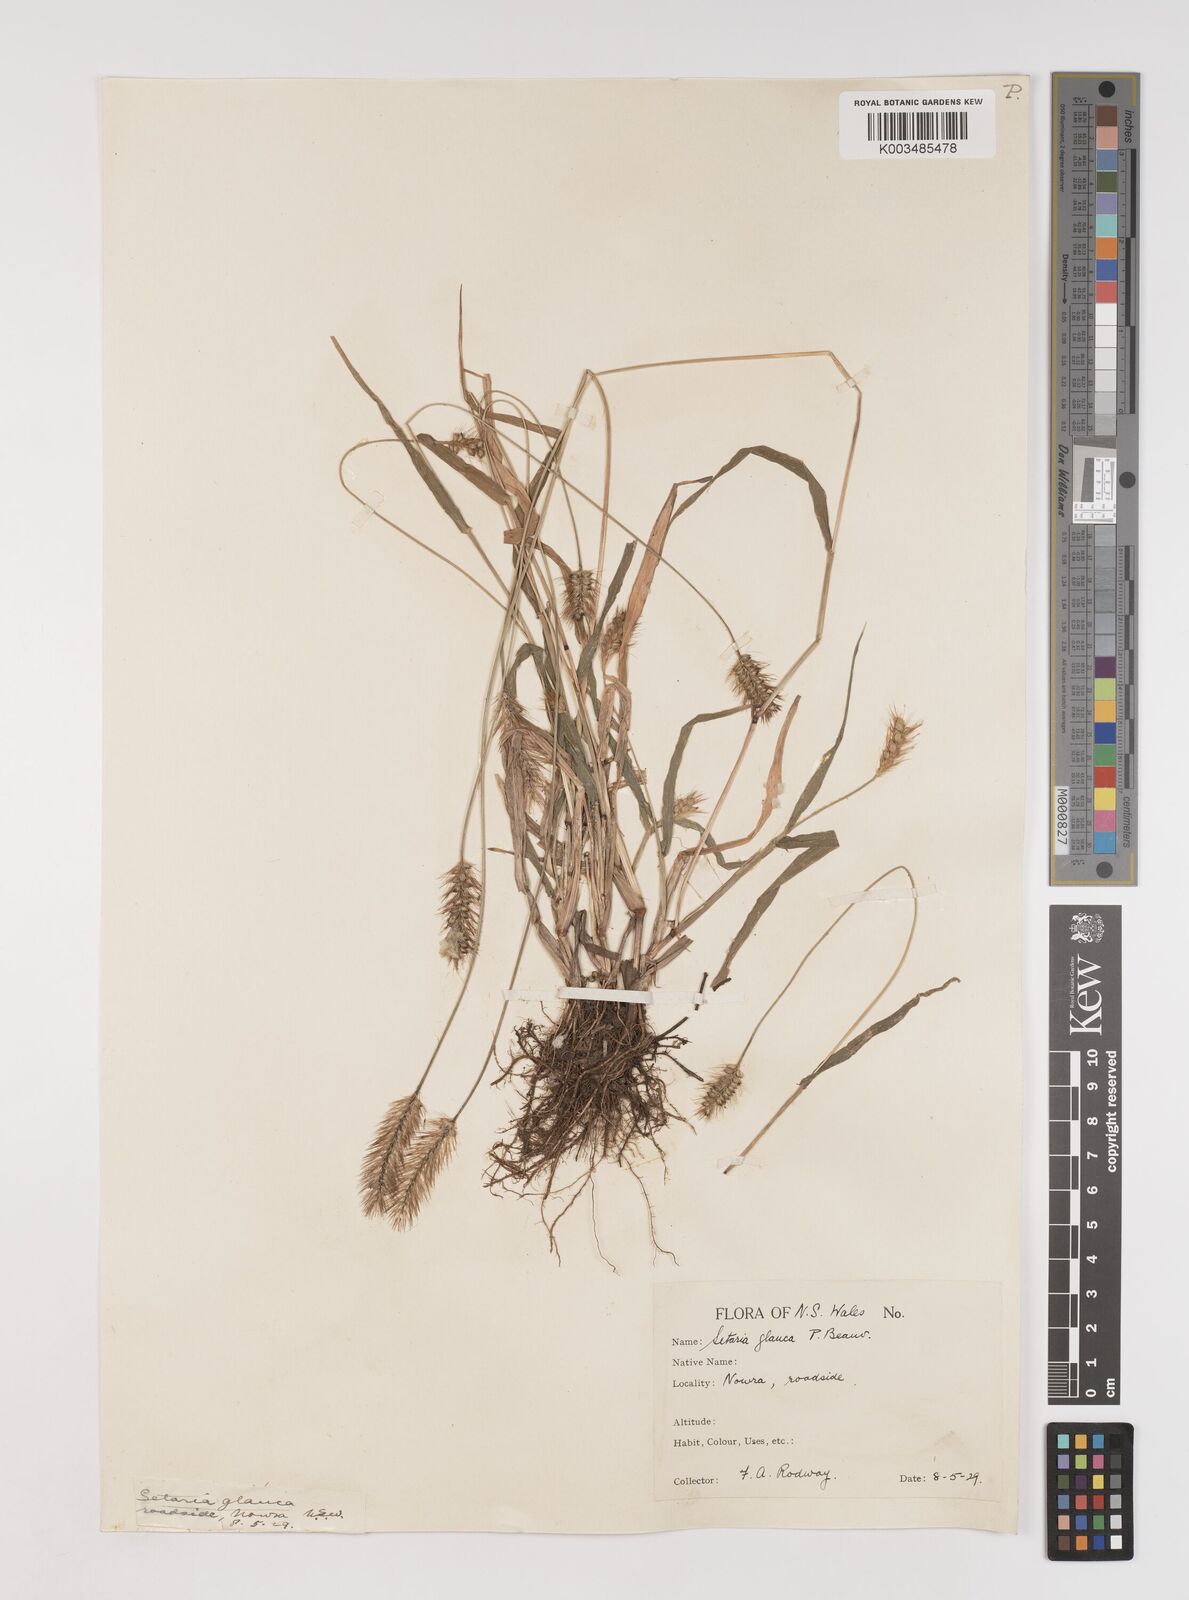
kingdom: Plantae
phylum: Tracheophyta
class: Liliopsida
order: Poales
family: Poaceae
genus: Setaria
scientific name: Setaria pumila
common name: Yellow bristle-grass
